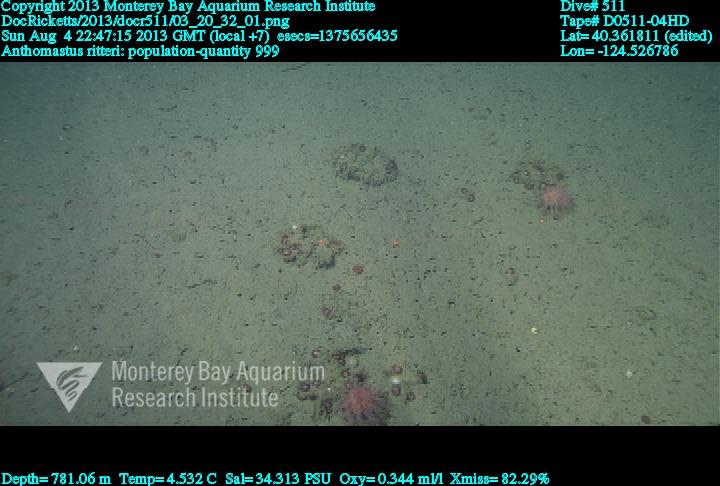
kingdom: Animalia
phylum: Cnidaria
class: Anthozoa
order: Scleralcyonacea
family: Coralliidae
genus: Heteropolypus
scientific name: Heteropolypus ritteri
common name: Ritter's soft coral
